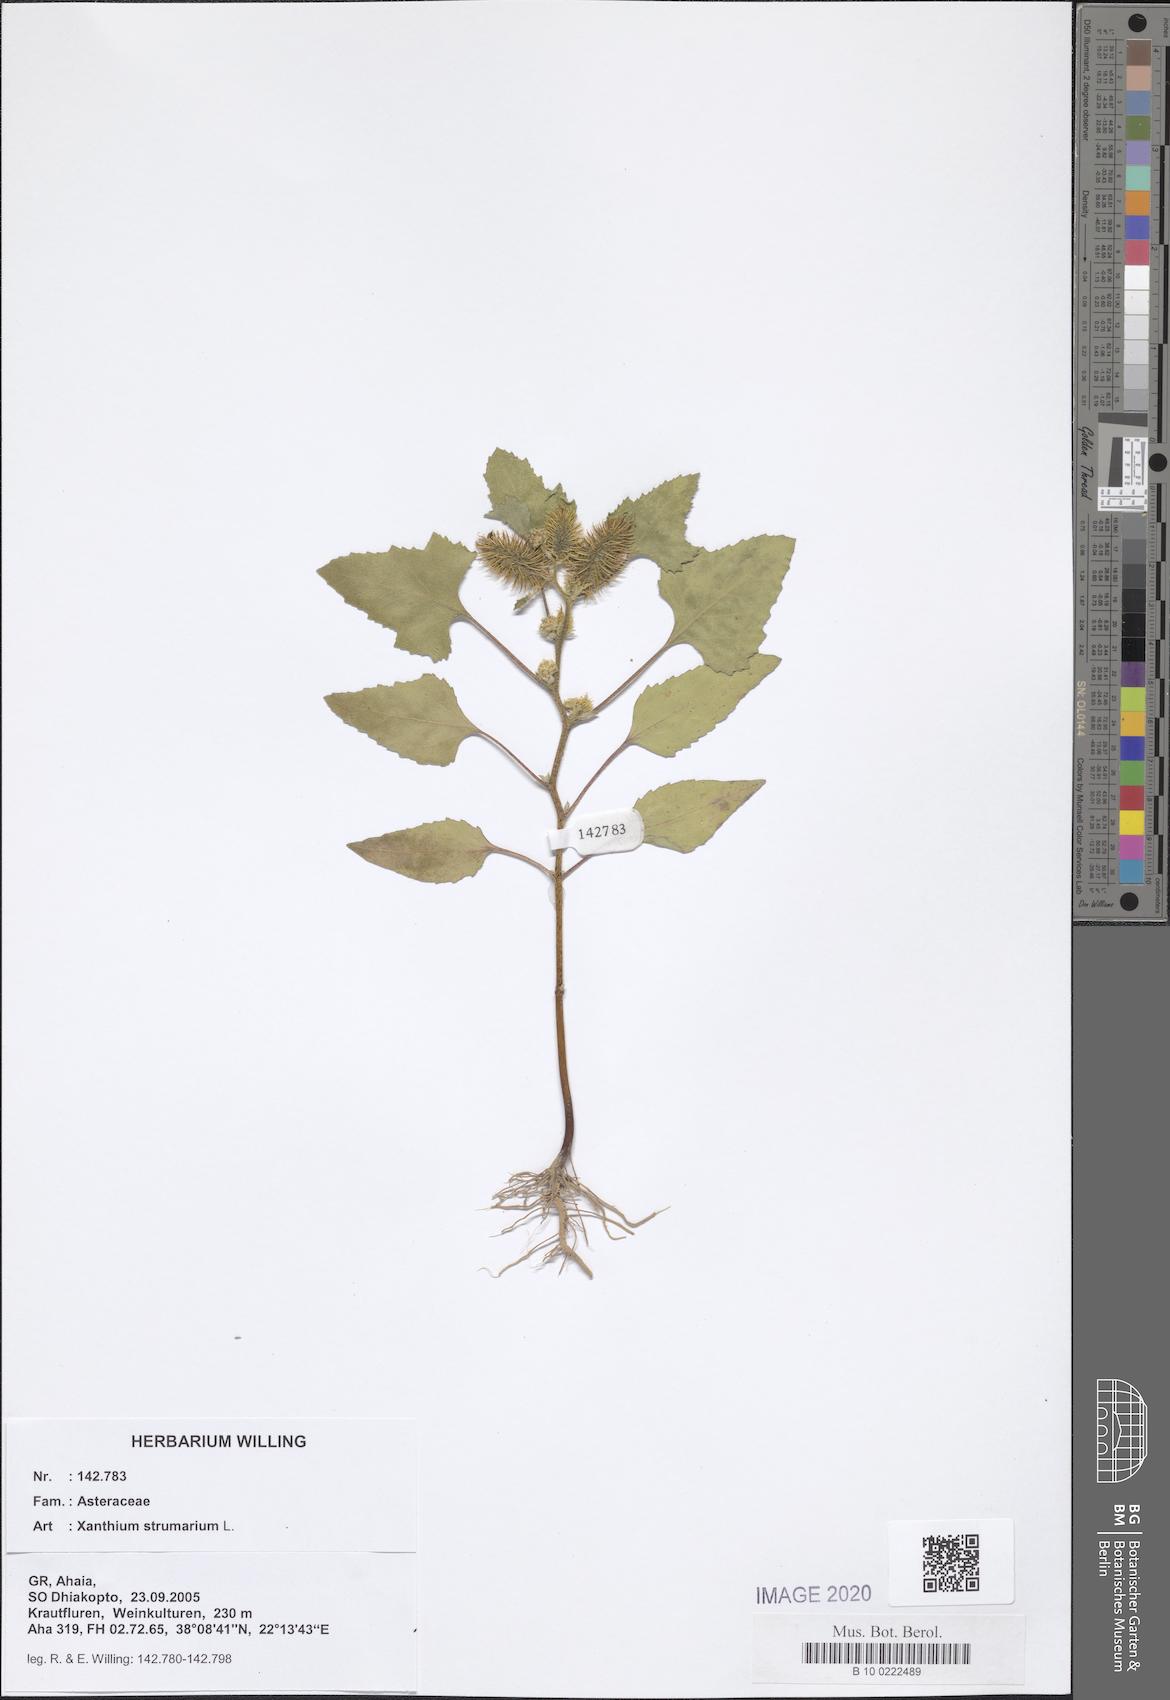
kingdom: Plantae
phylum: Tracheophyta
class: Magnoliopsida
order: Asterales
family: Asteraceae
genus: Xanthium
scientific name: Xanthium strumarium
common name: Rough cocklebur
